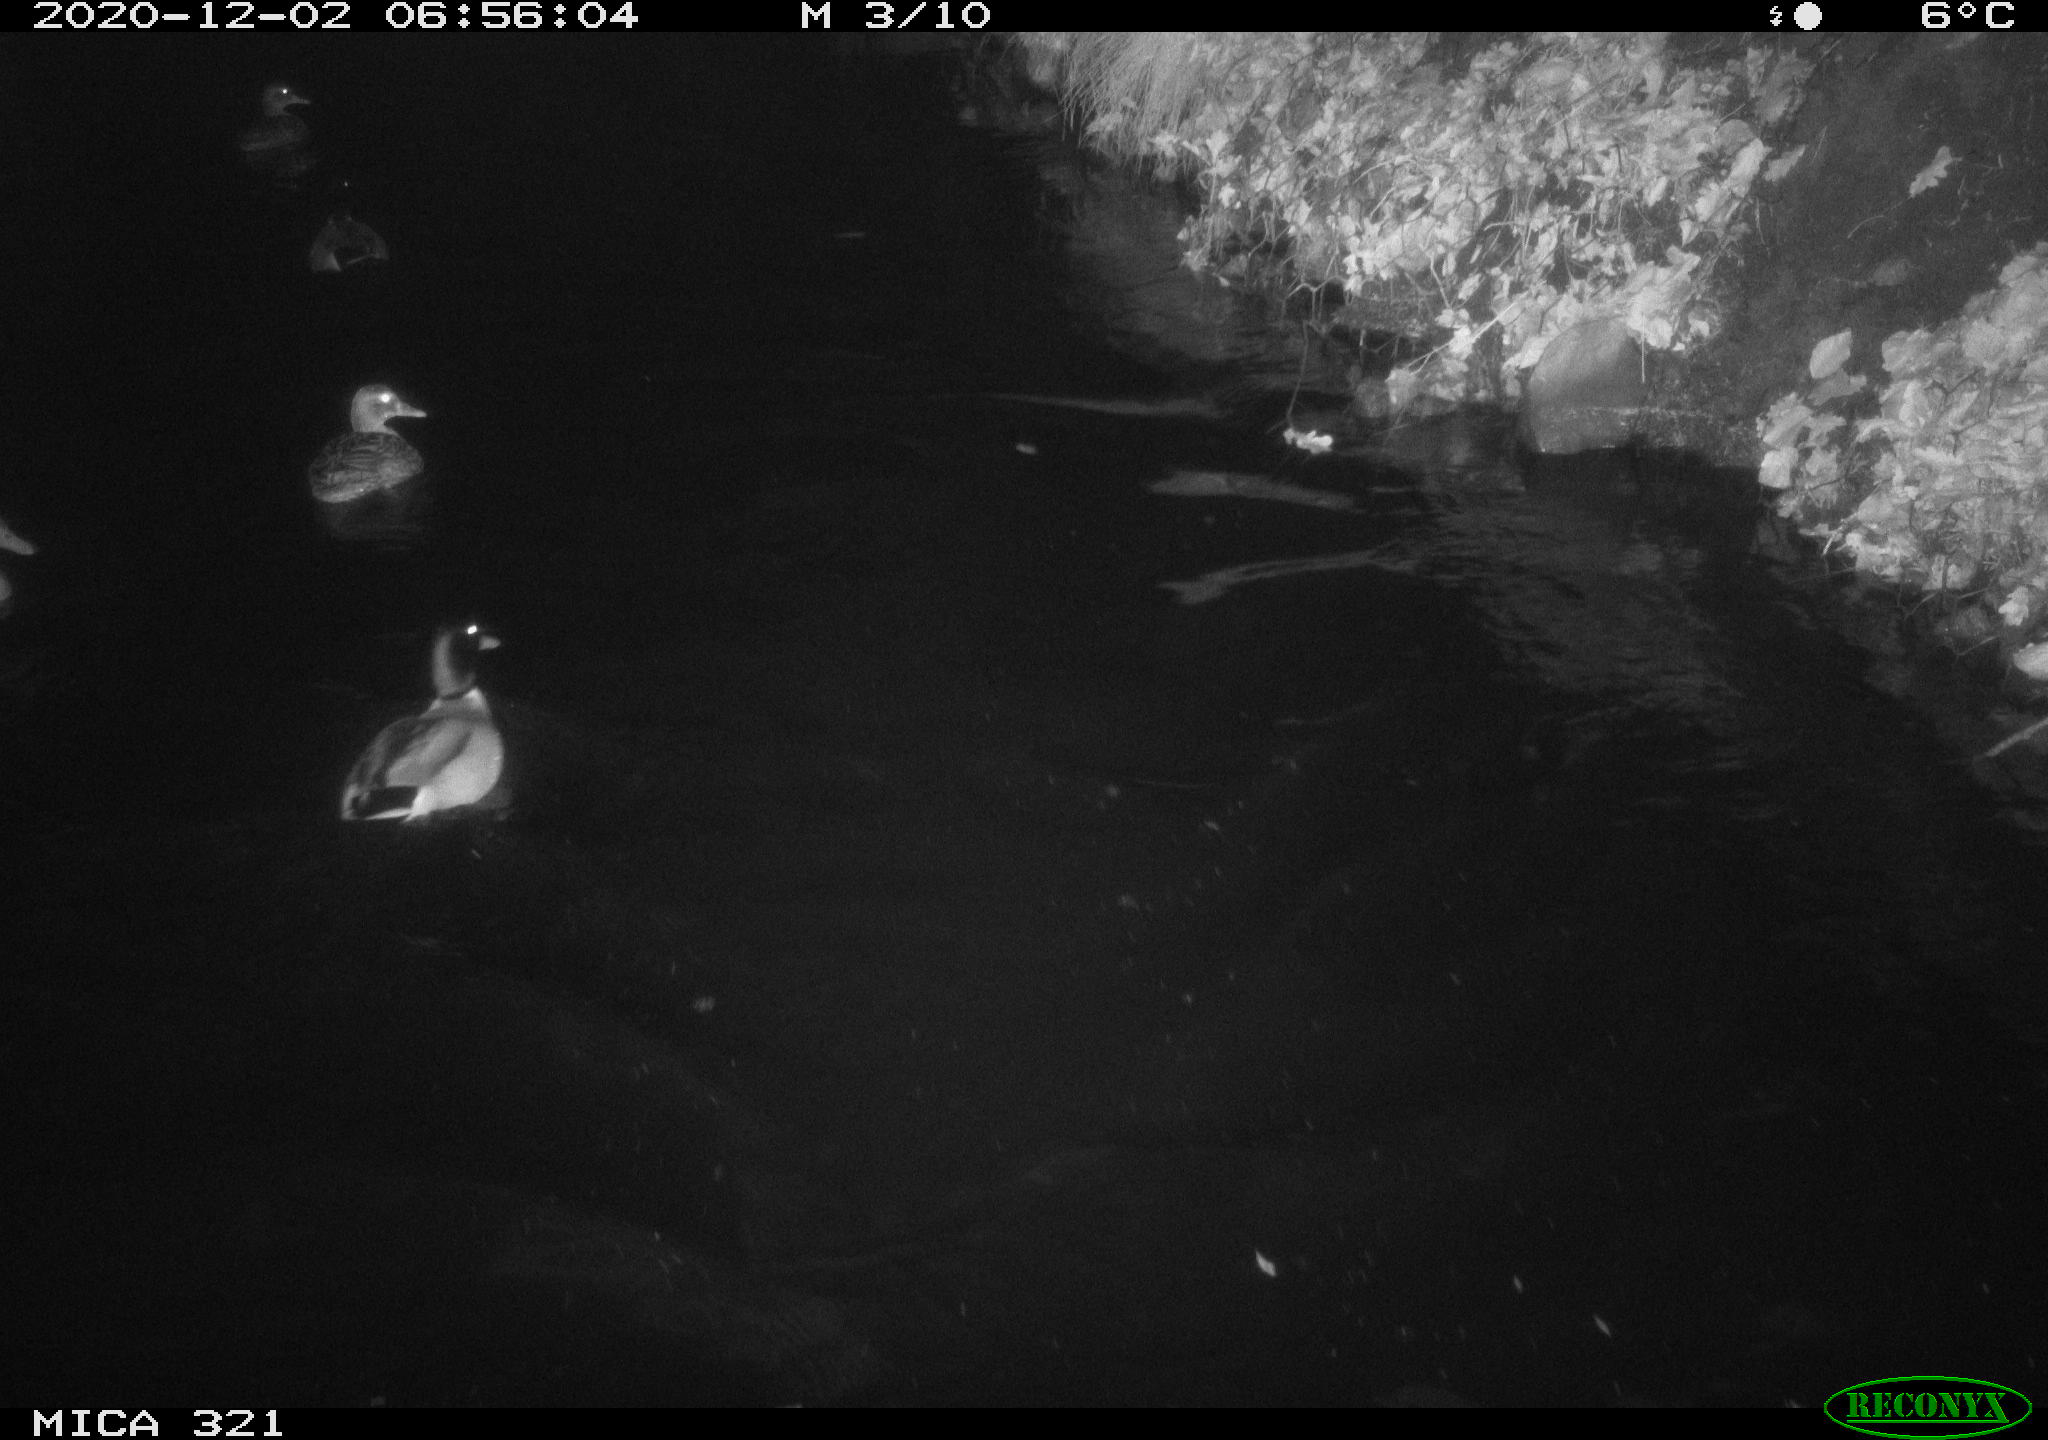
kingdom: Animalia
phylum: Chordata
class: Aves
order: Anseriformes
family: Anatidae
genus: Anas
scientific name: Anas platyrhynchos
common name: Mallard
